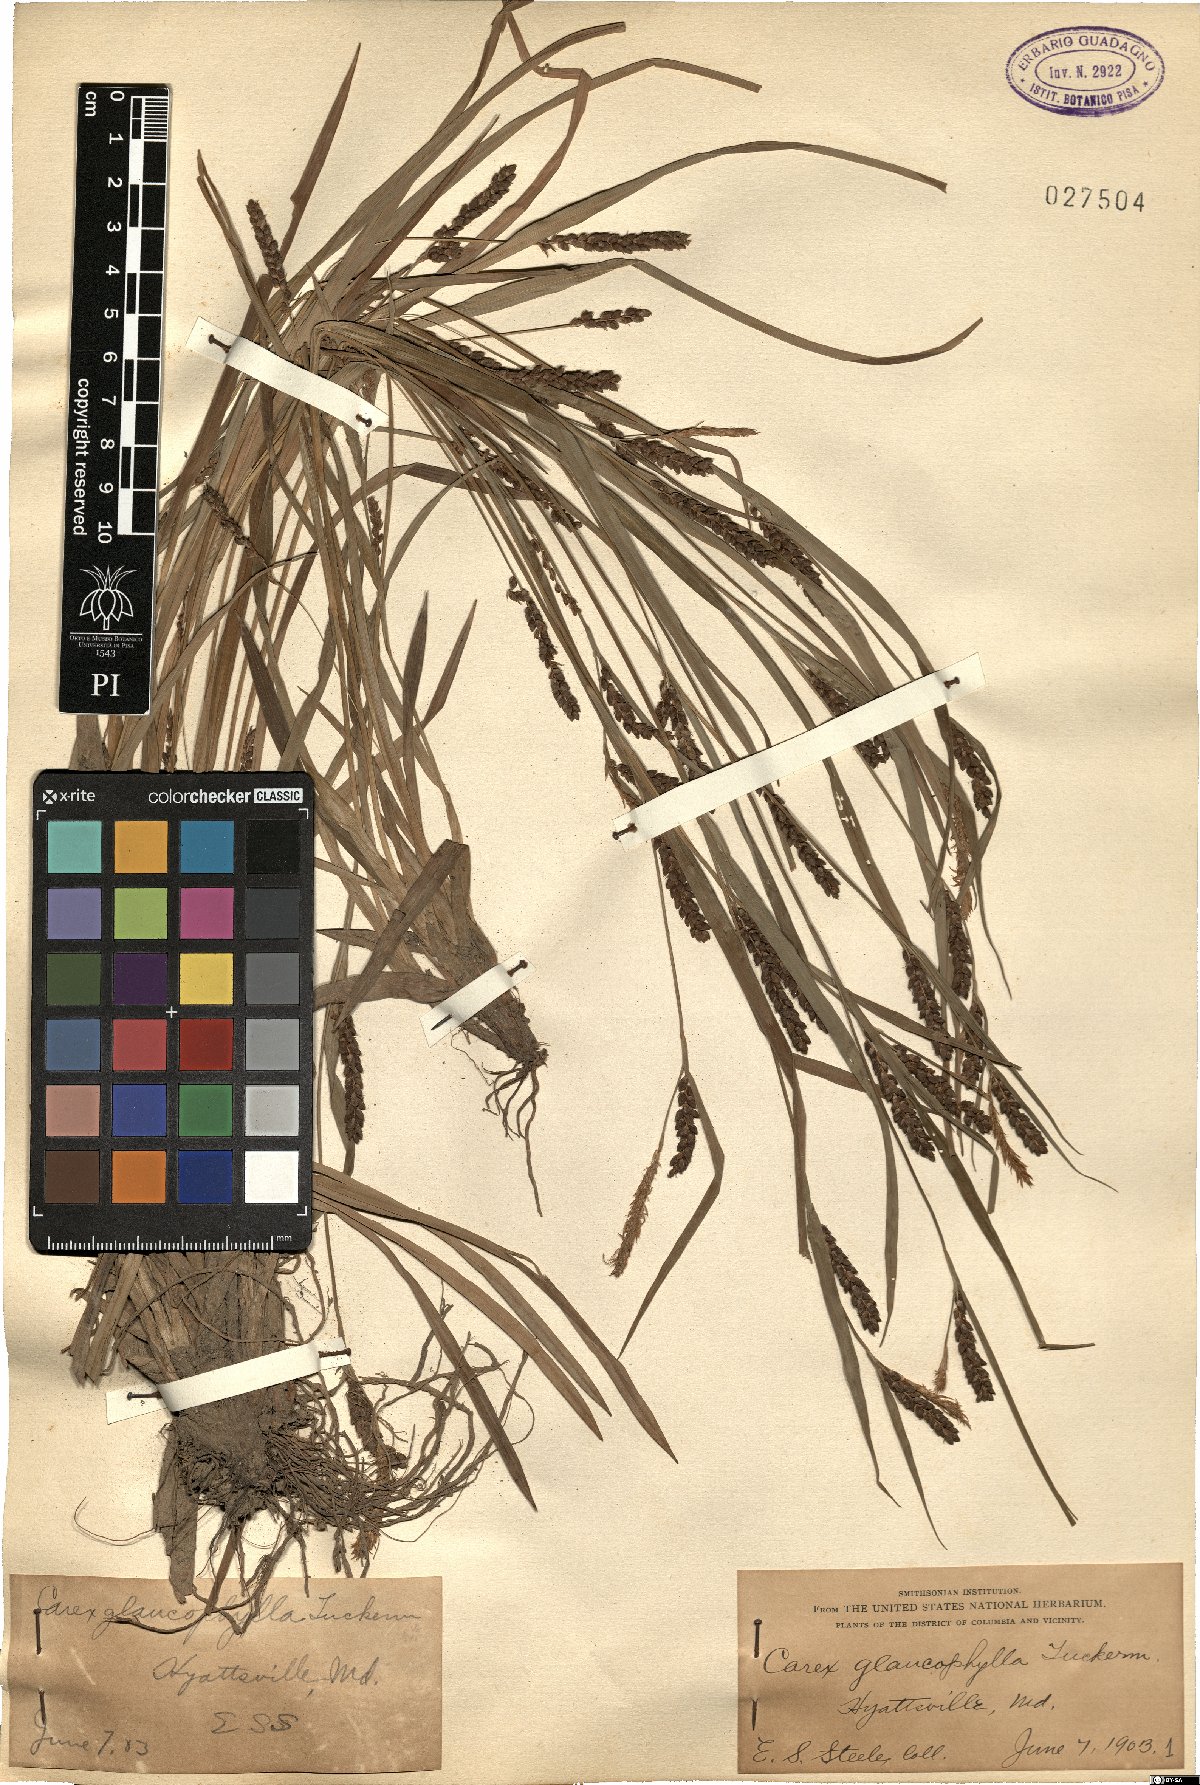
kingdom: Plantae
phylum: Tracheophyta
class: Liliopsida
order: Poales
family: Cyperaceae
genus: Carex
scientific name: Carex
